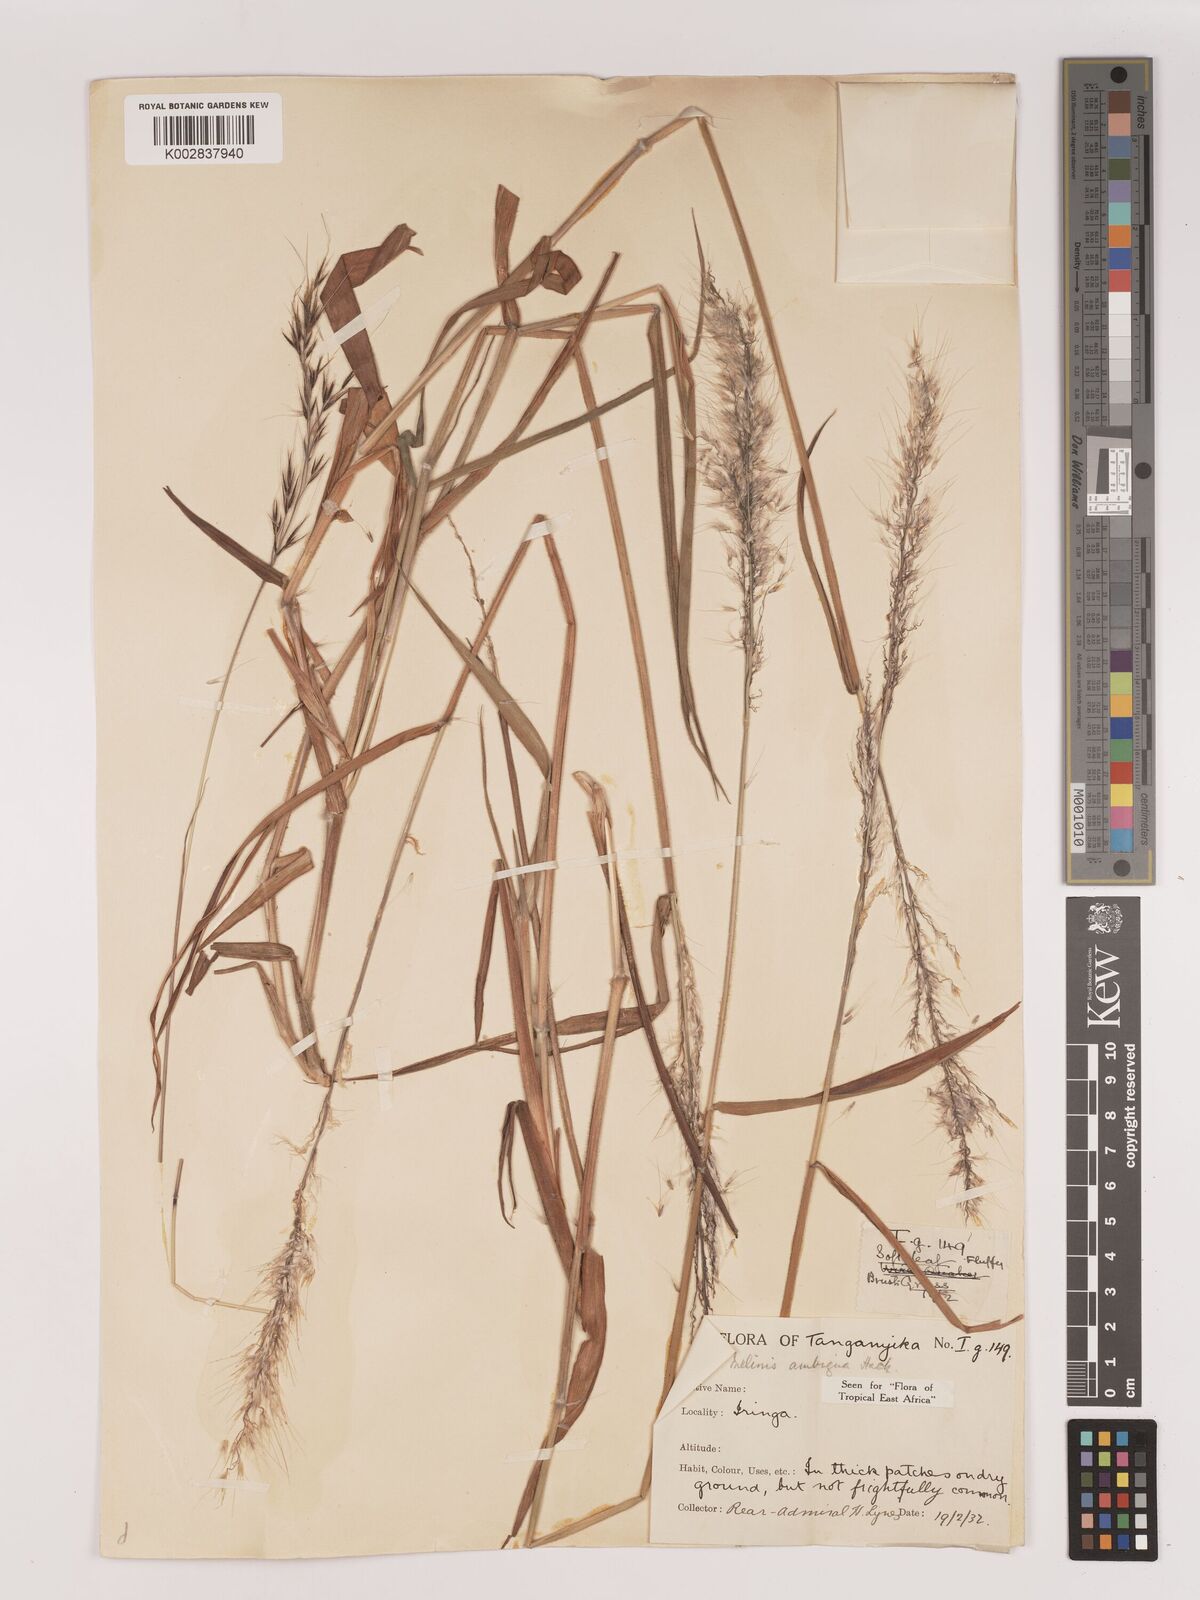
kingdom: Plantae
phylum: Tracheophyta
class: Liliopsida
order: Poales
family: Poaceae
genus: Melinis
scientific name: Melinis ambigua
